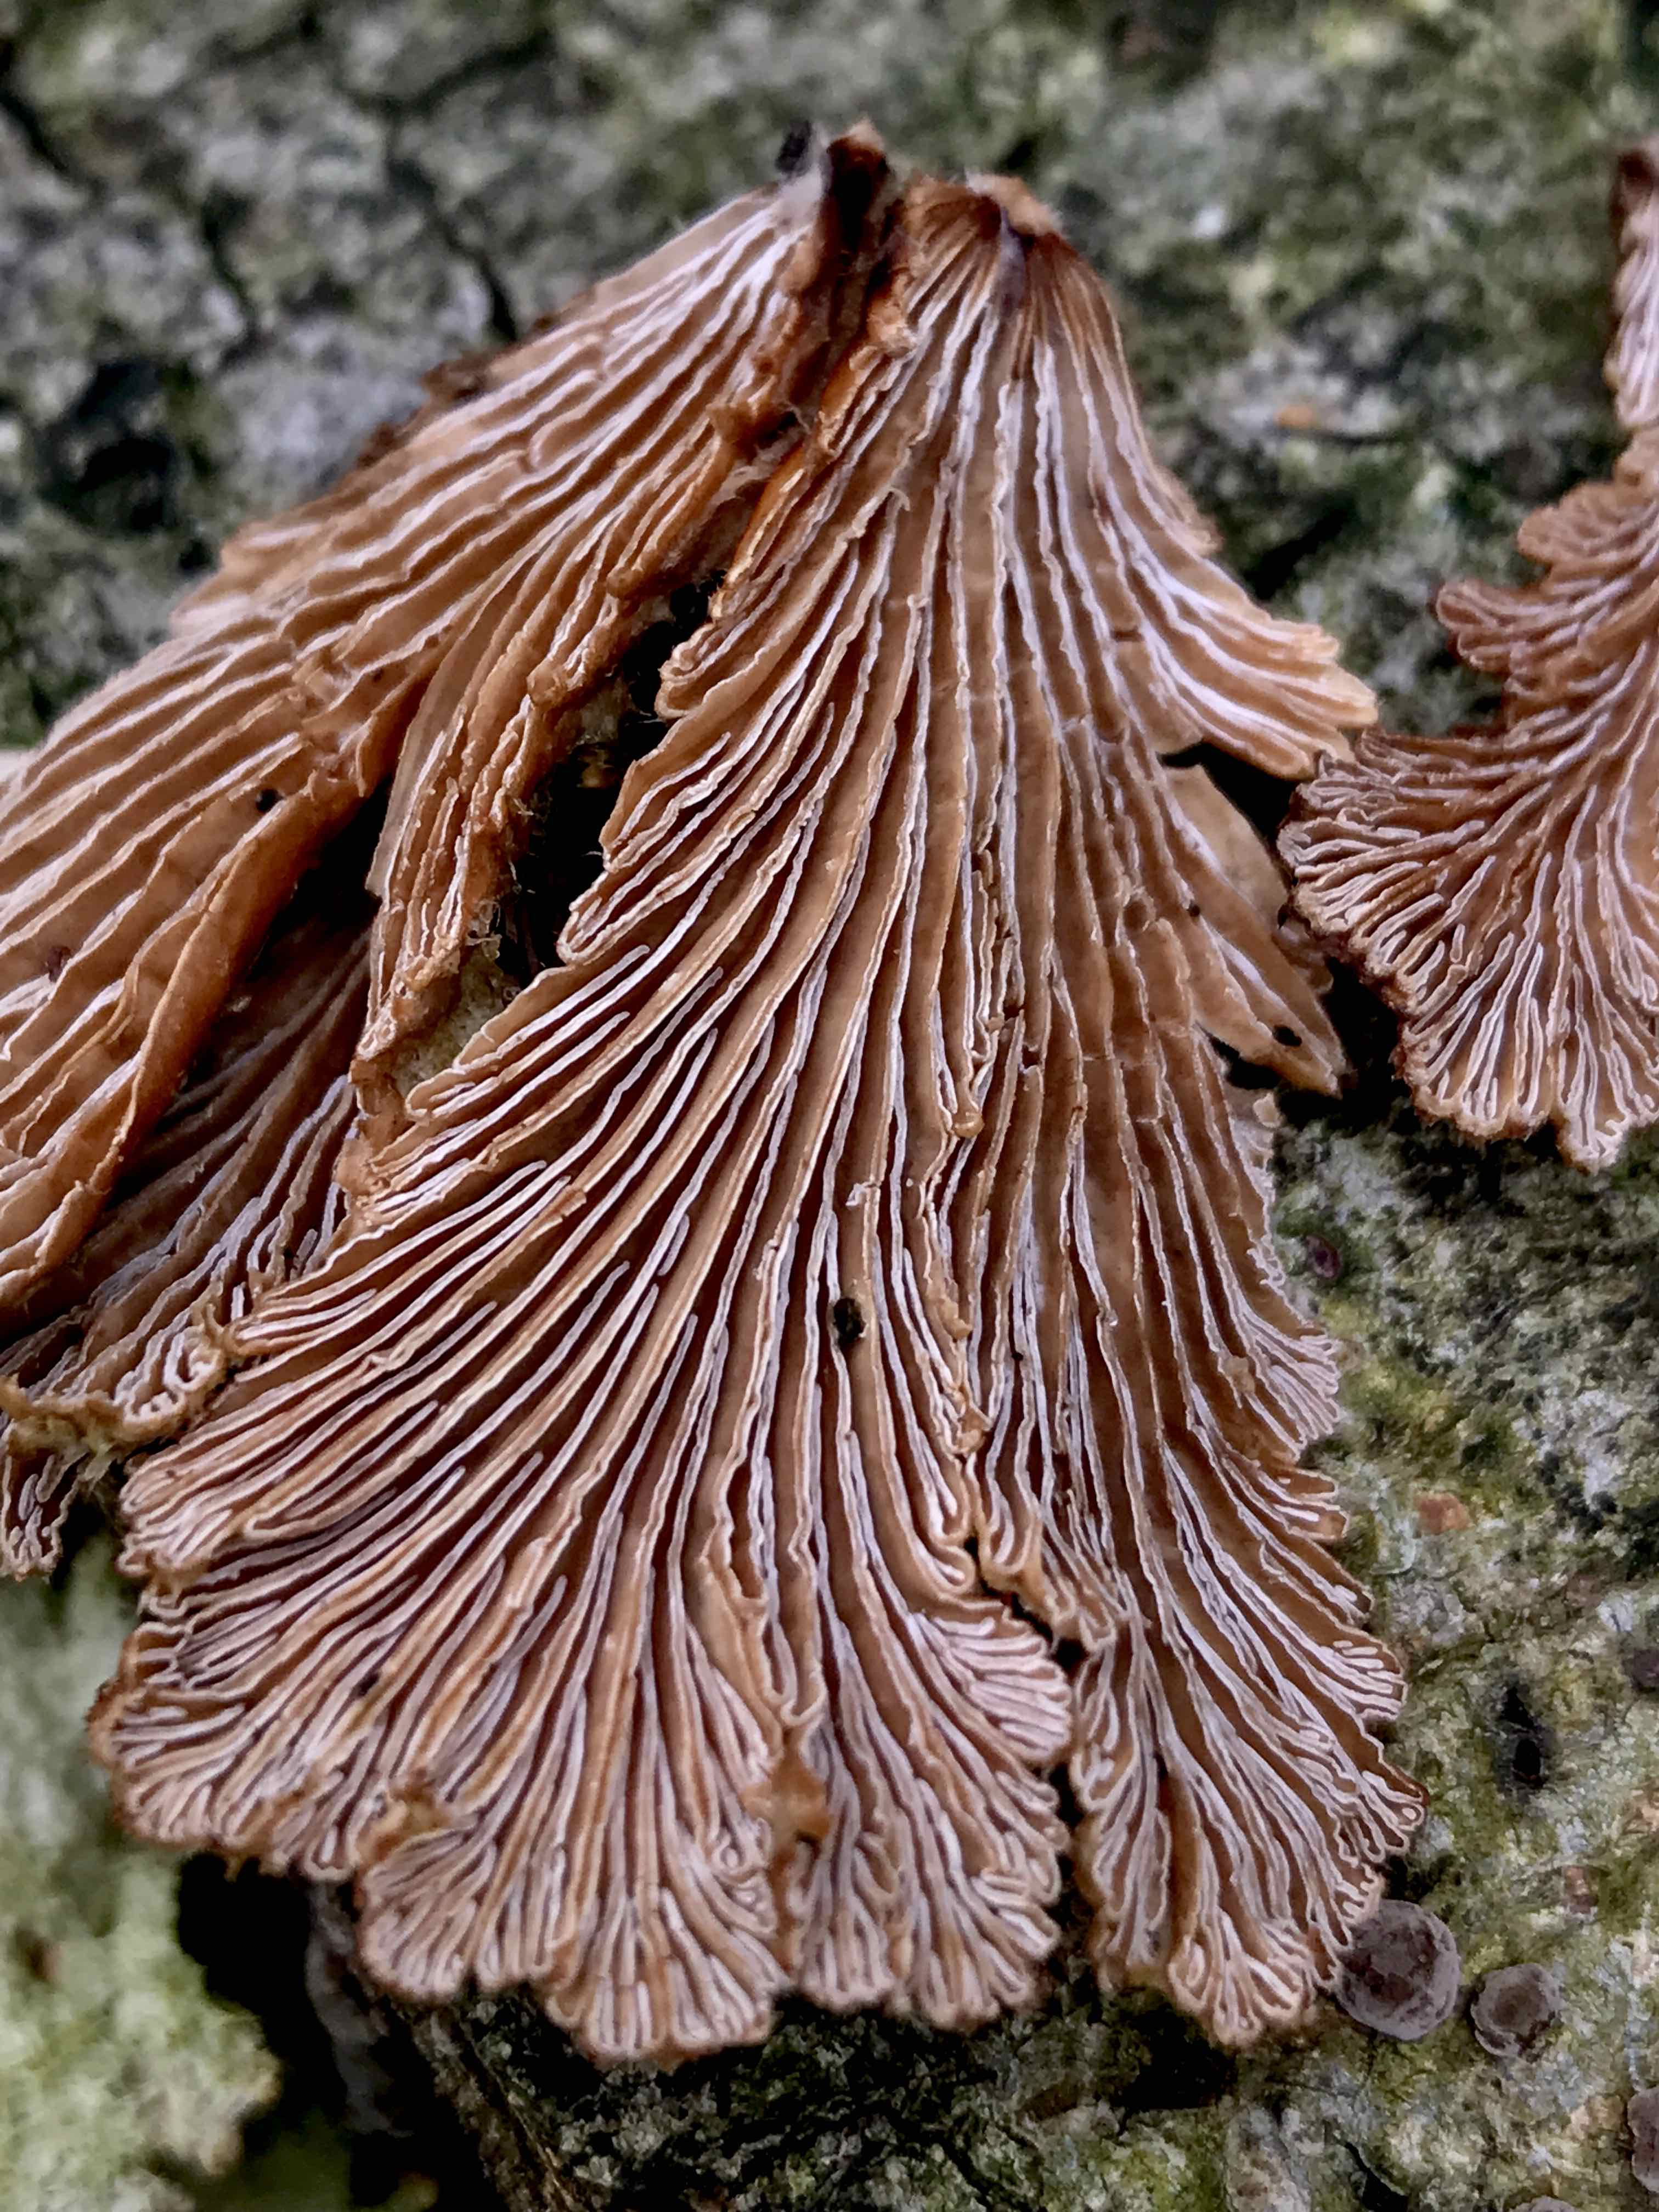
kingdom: Fungi
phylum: Basidiomycota
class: Agaricomycetes
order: Agaricales
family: Schizophyllaceae
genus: Schizophyllum
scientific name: Schizophyllum commune
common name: kløvblad
